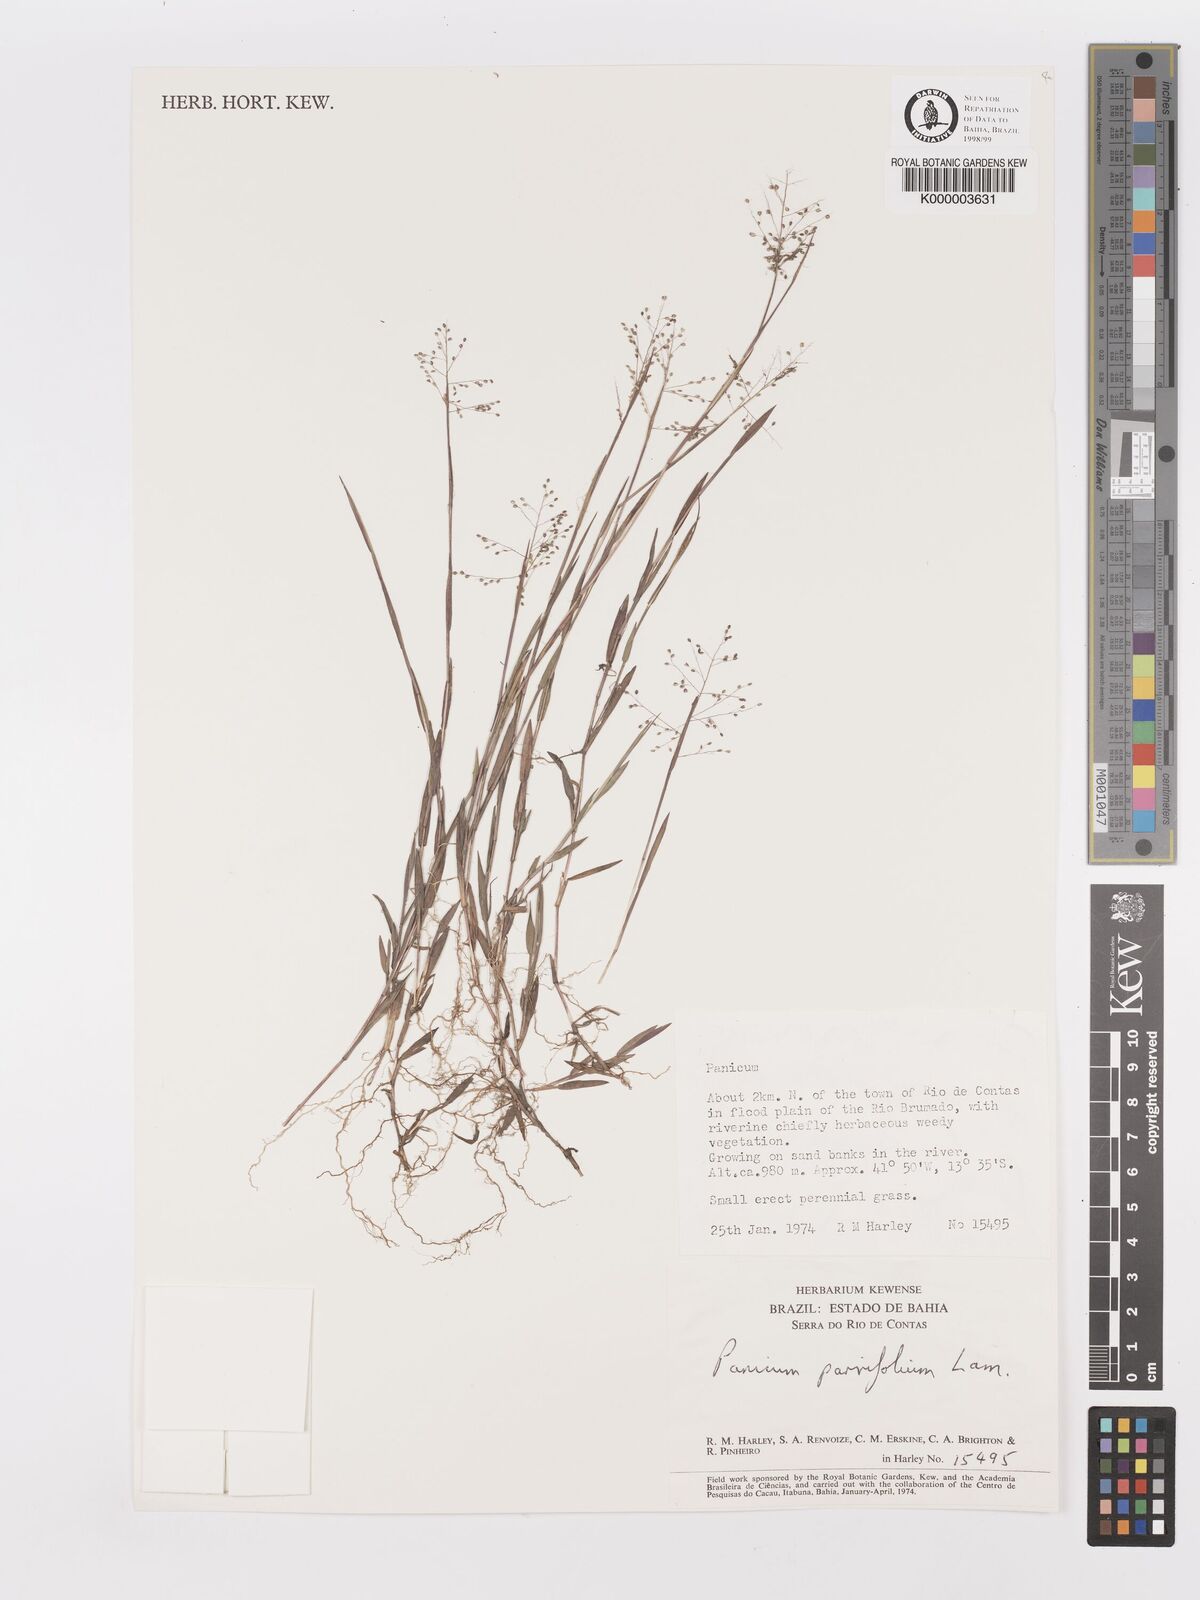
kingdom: Plantae
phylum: Tracheophyta
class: Liliopsida
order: Poales
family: Poaceae
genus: Trichanthecium
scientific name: Trichanthecium parvifolium
